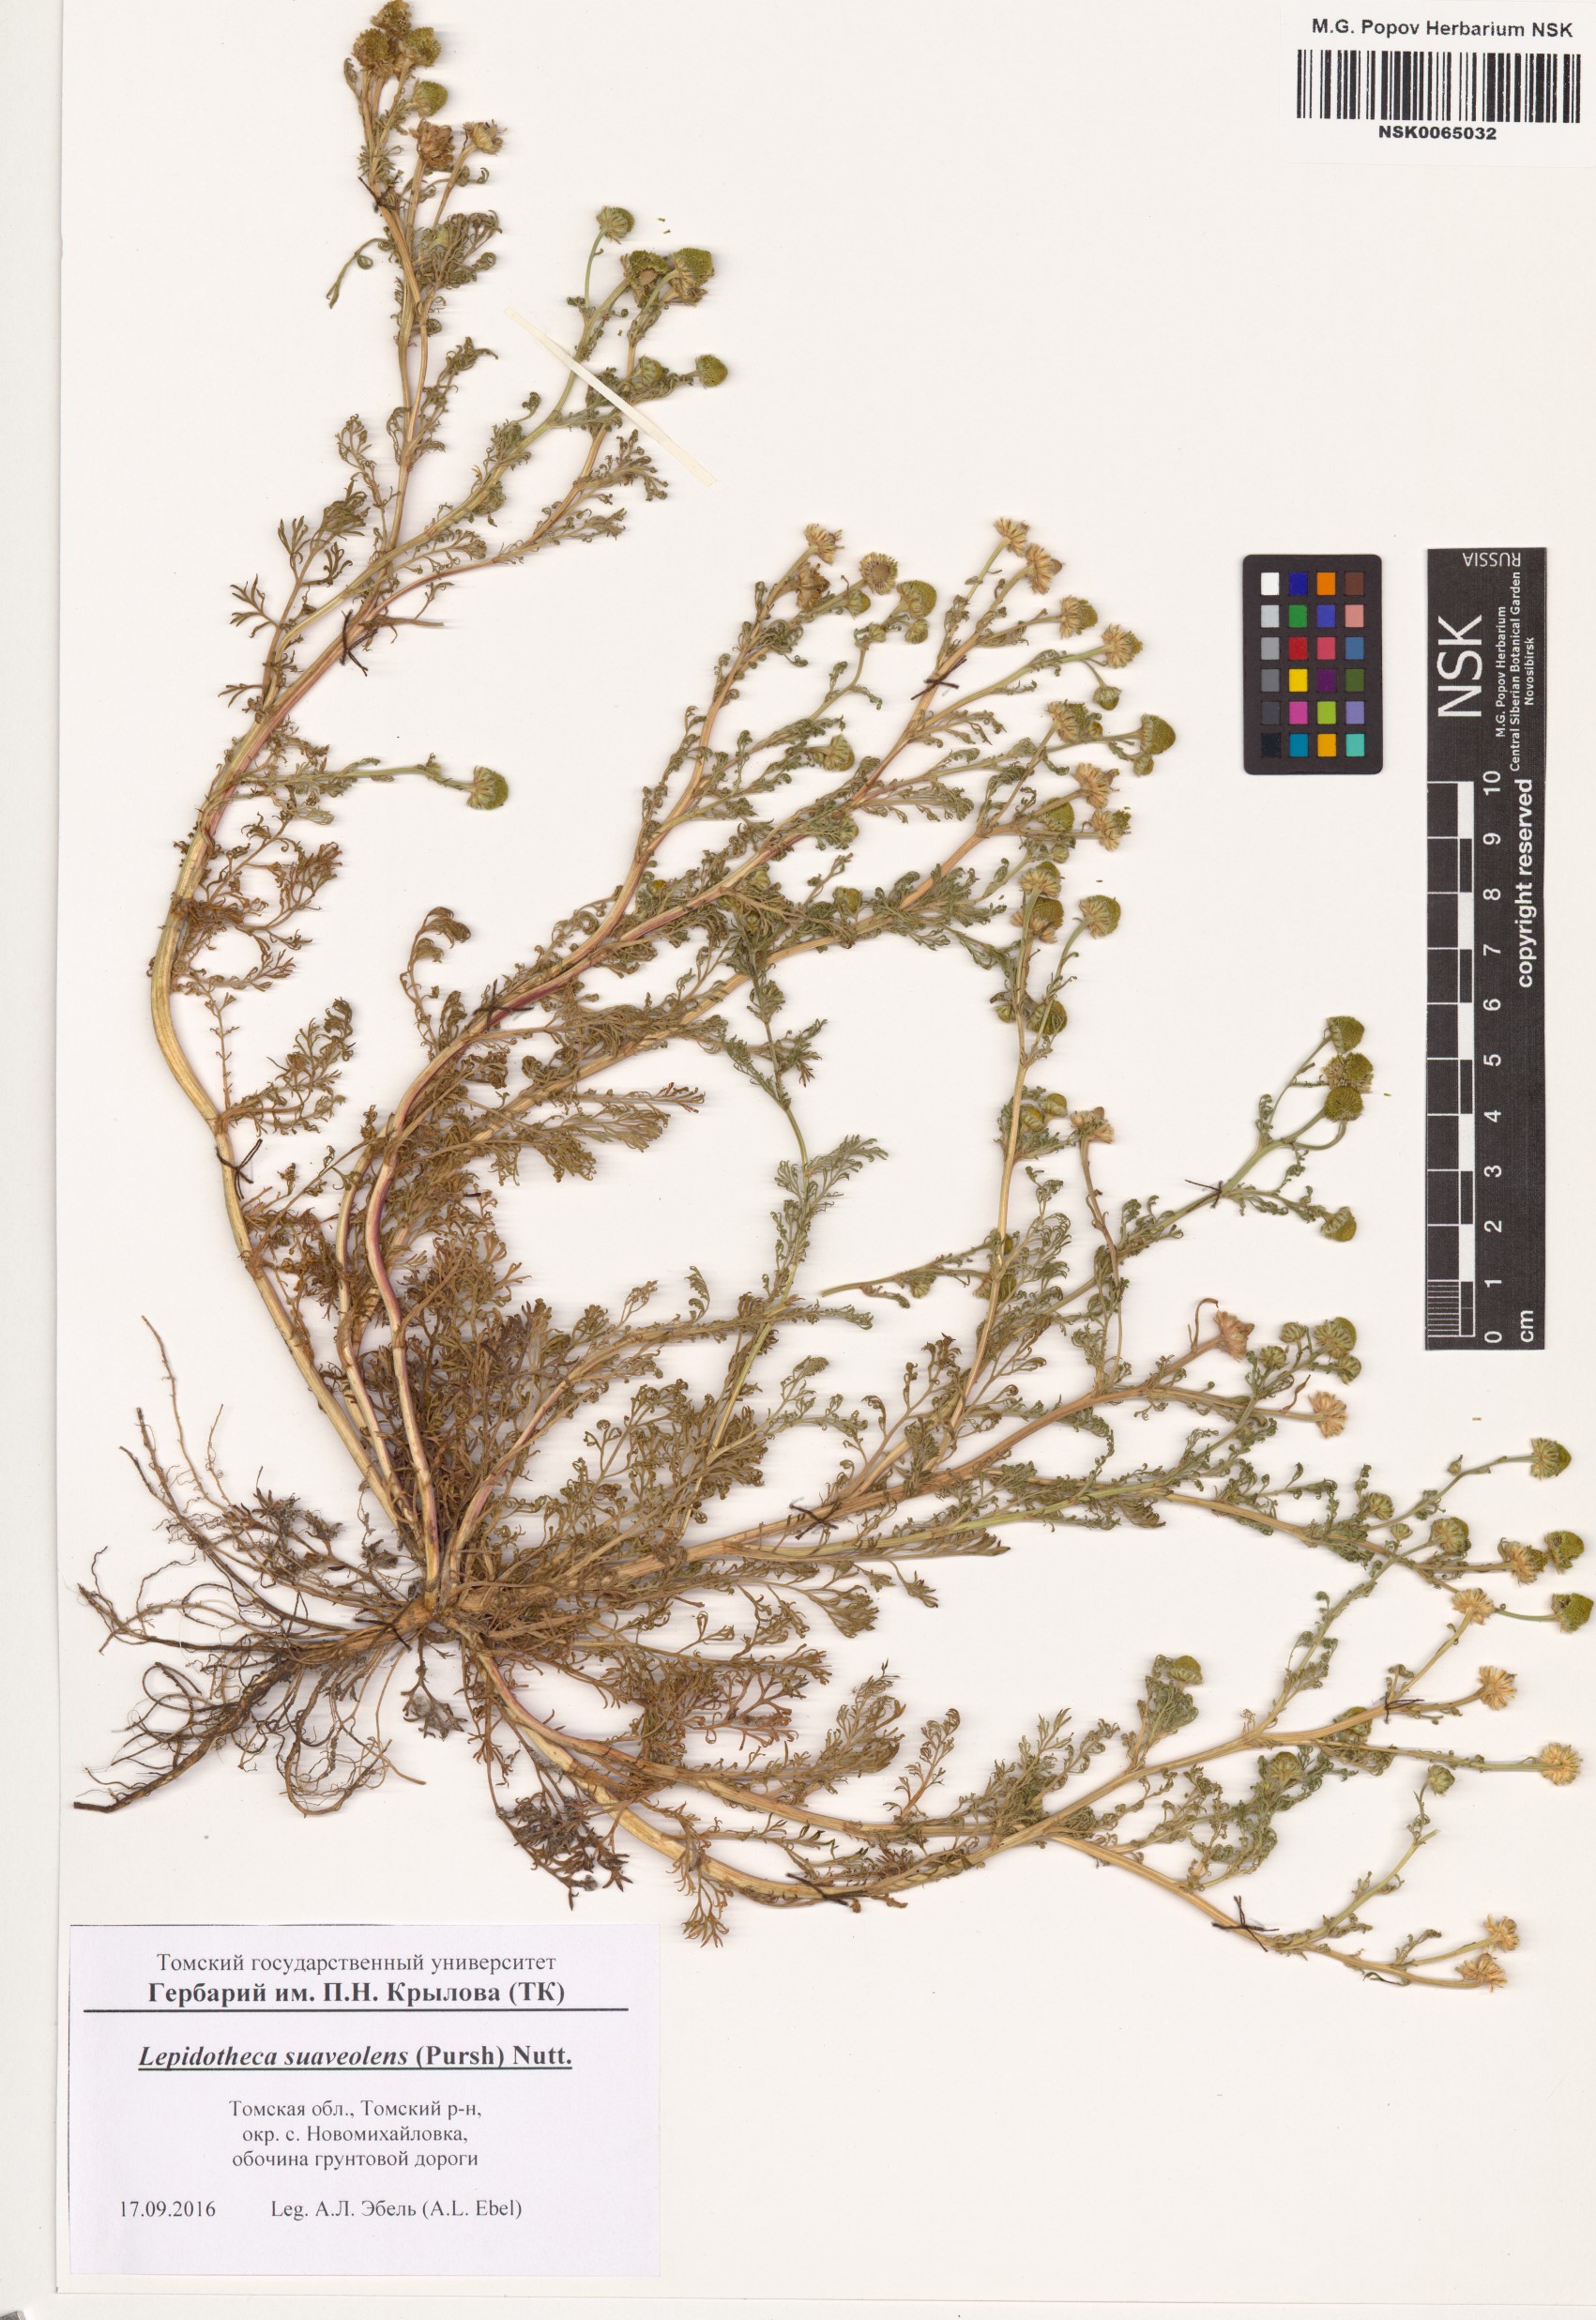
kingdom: Plantae
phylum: Tracheophyta
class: Magnoliopsida
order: Asterales
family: Asteraceae
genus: Matricaria
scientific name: Matricaria discoidea
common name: Disc mayweed
